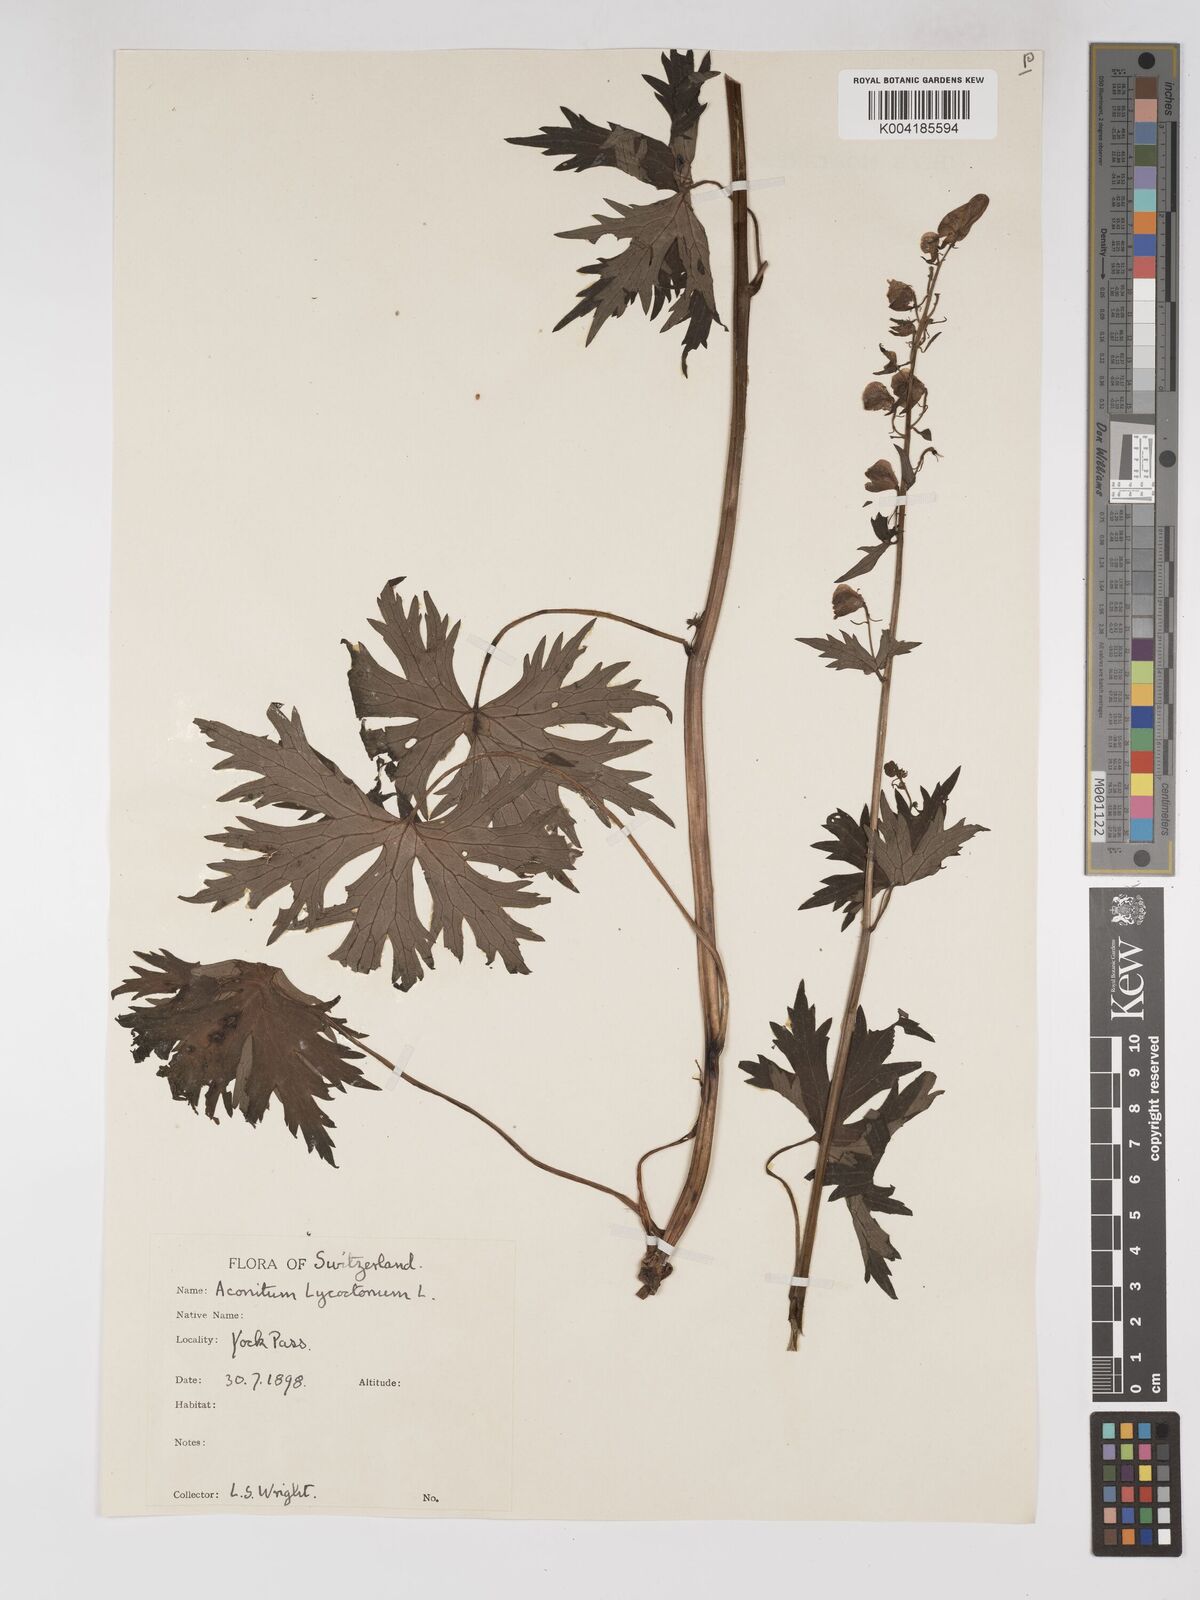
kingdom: Plantae
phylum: Tracheophyta
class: Magnoliopsida
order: Ranunculales
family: Ranunculaceae
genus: Aconitum
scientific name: Aconitum lycoctonum
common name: Wolf's-bane
